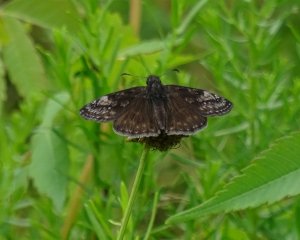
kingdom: Animalia
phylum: Arthropoda
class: Insecta
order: Lepidoptera
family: Hesperiidae
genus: Gesta
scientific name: Gesta
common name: Wild Indigo Duskywing
